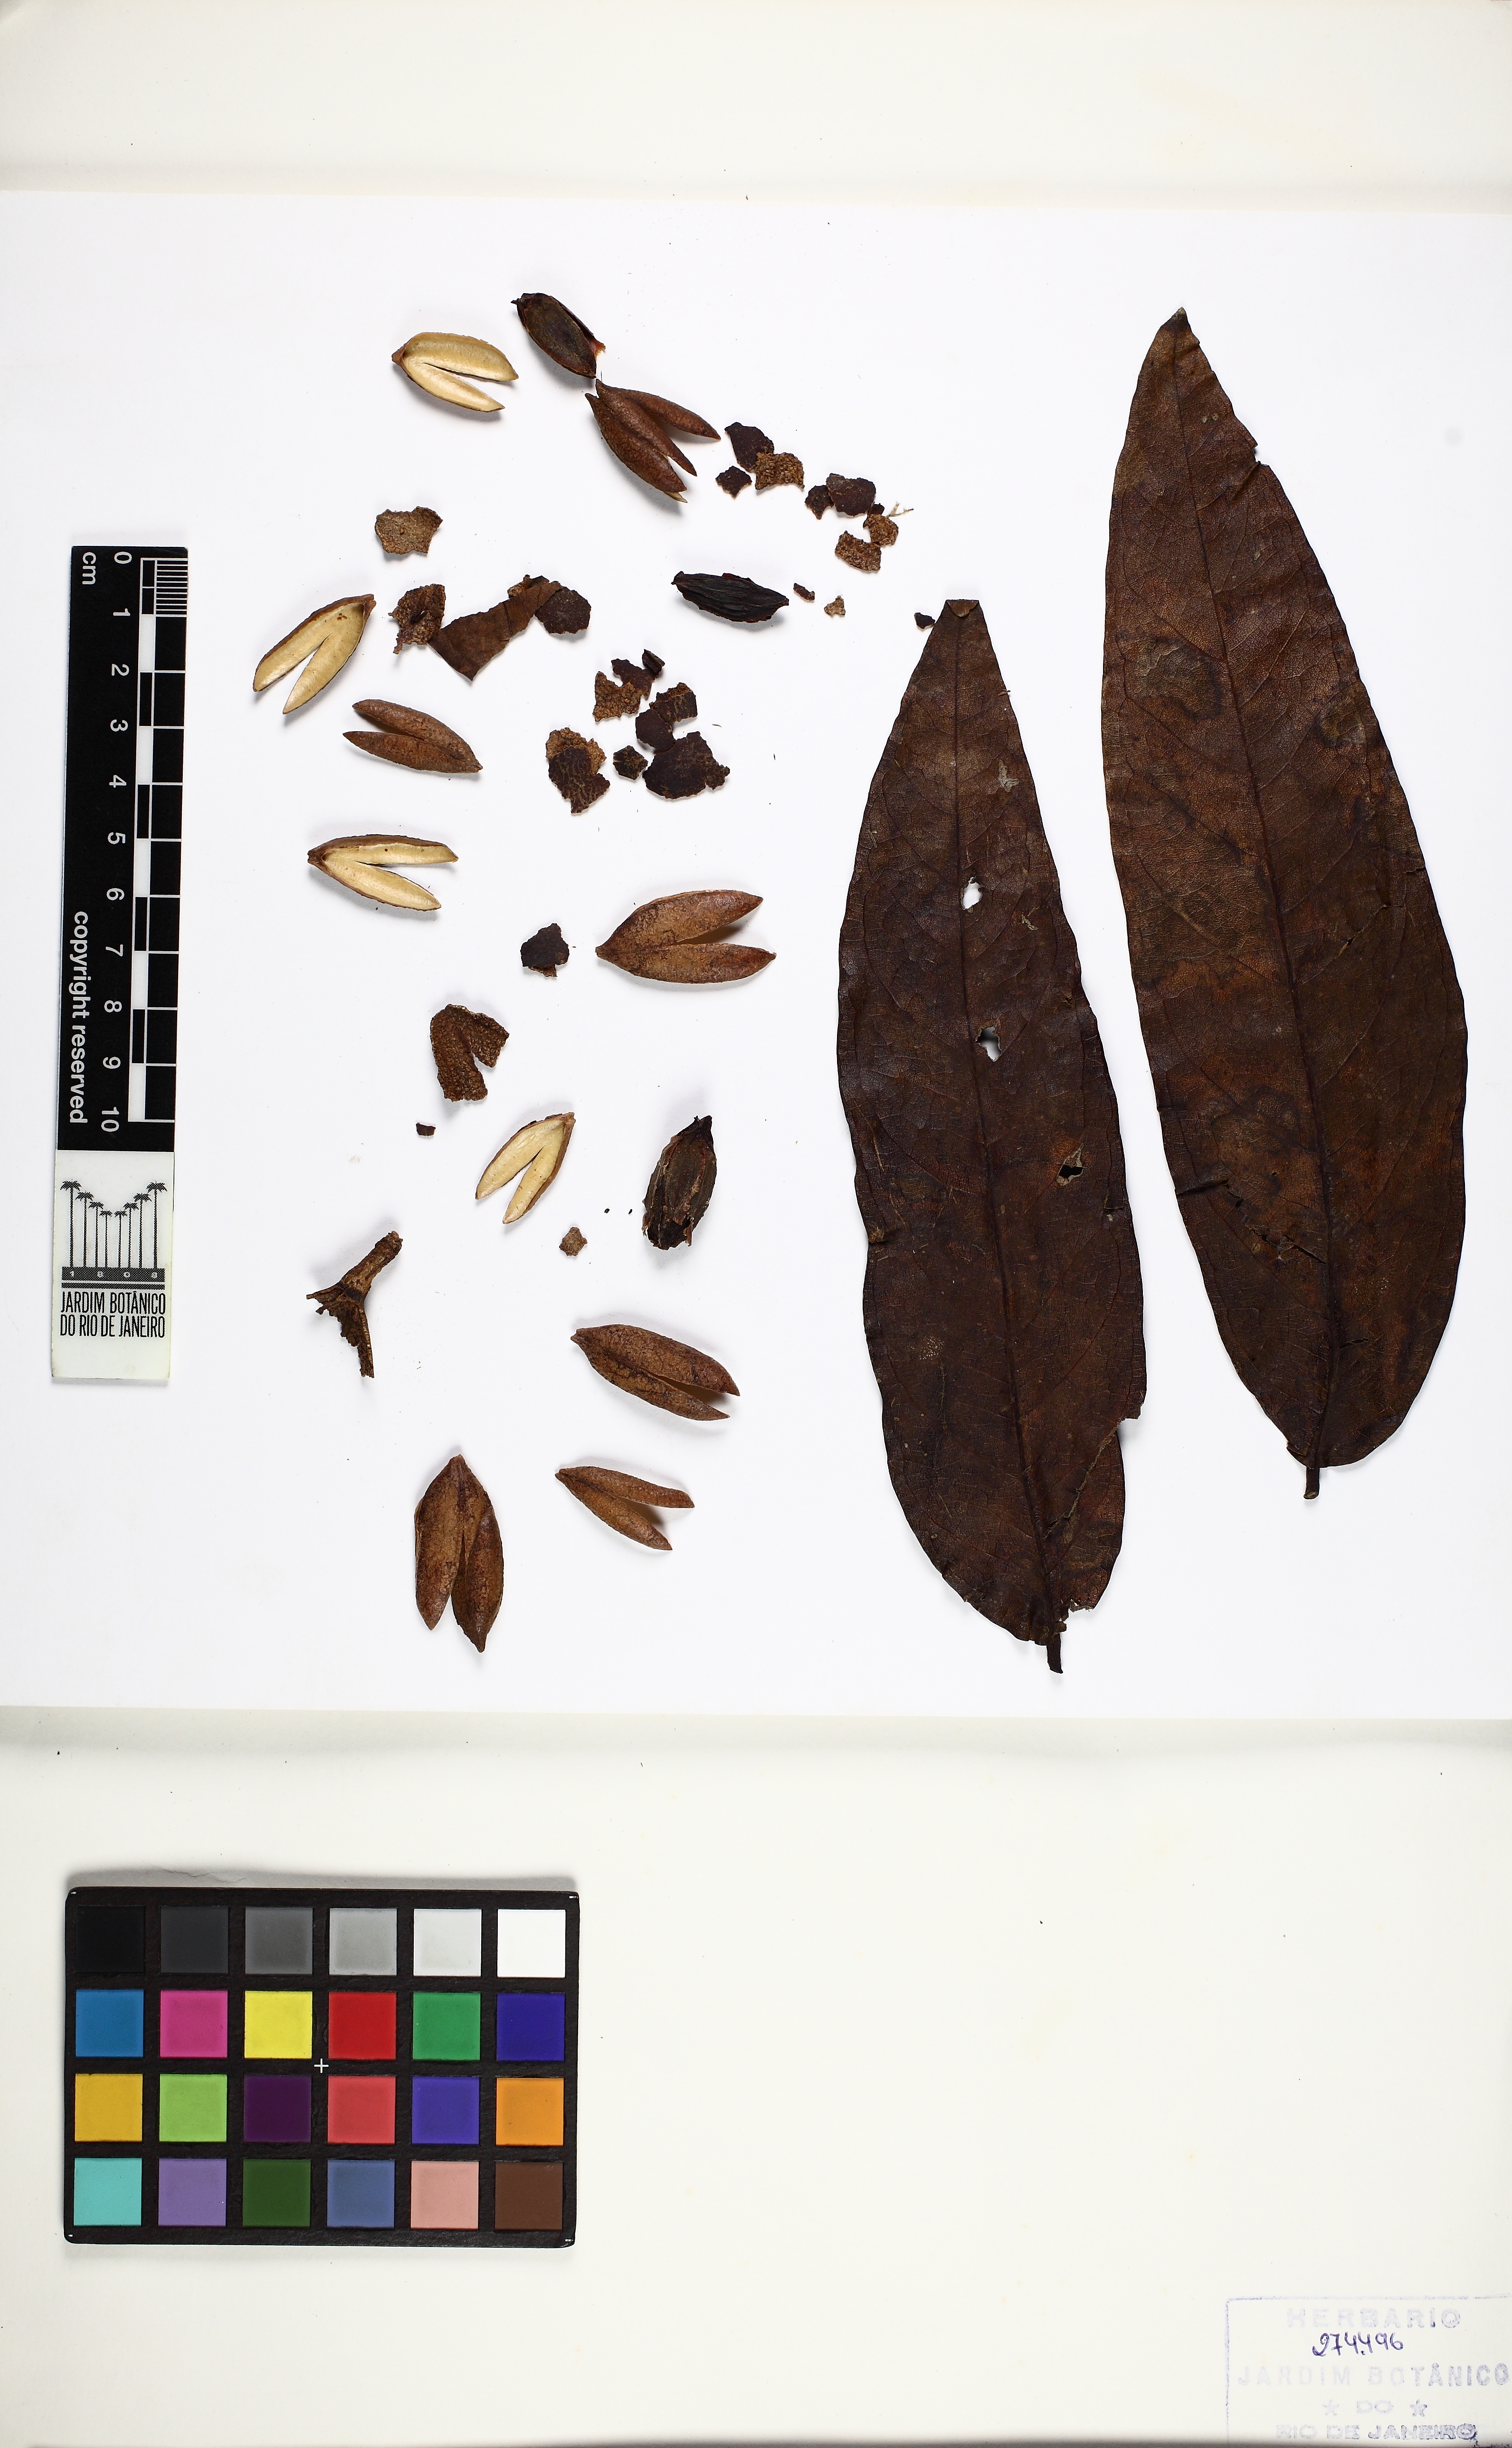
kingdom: Plantae
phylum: Tracheophyta
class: Magnoliopsida
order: Myrtales
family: Vochysiaceae
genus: Callisthene
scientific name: Callisthene fasciculata
